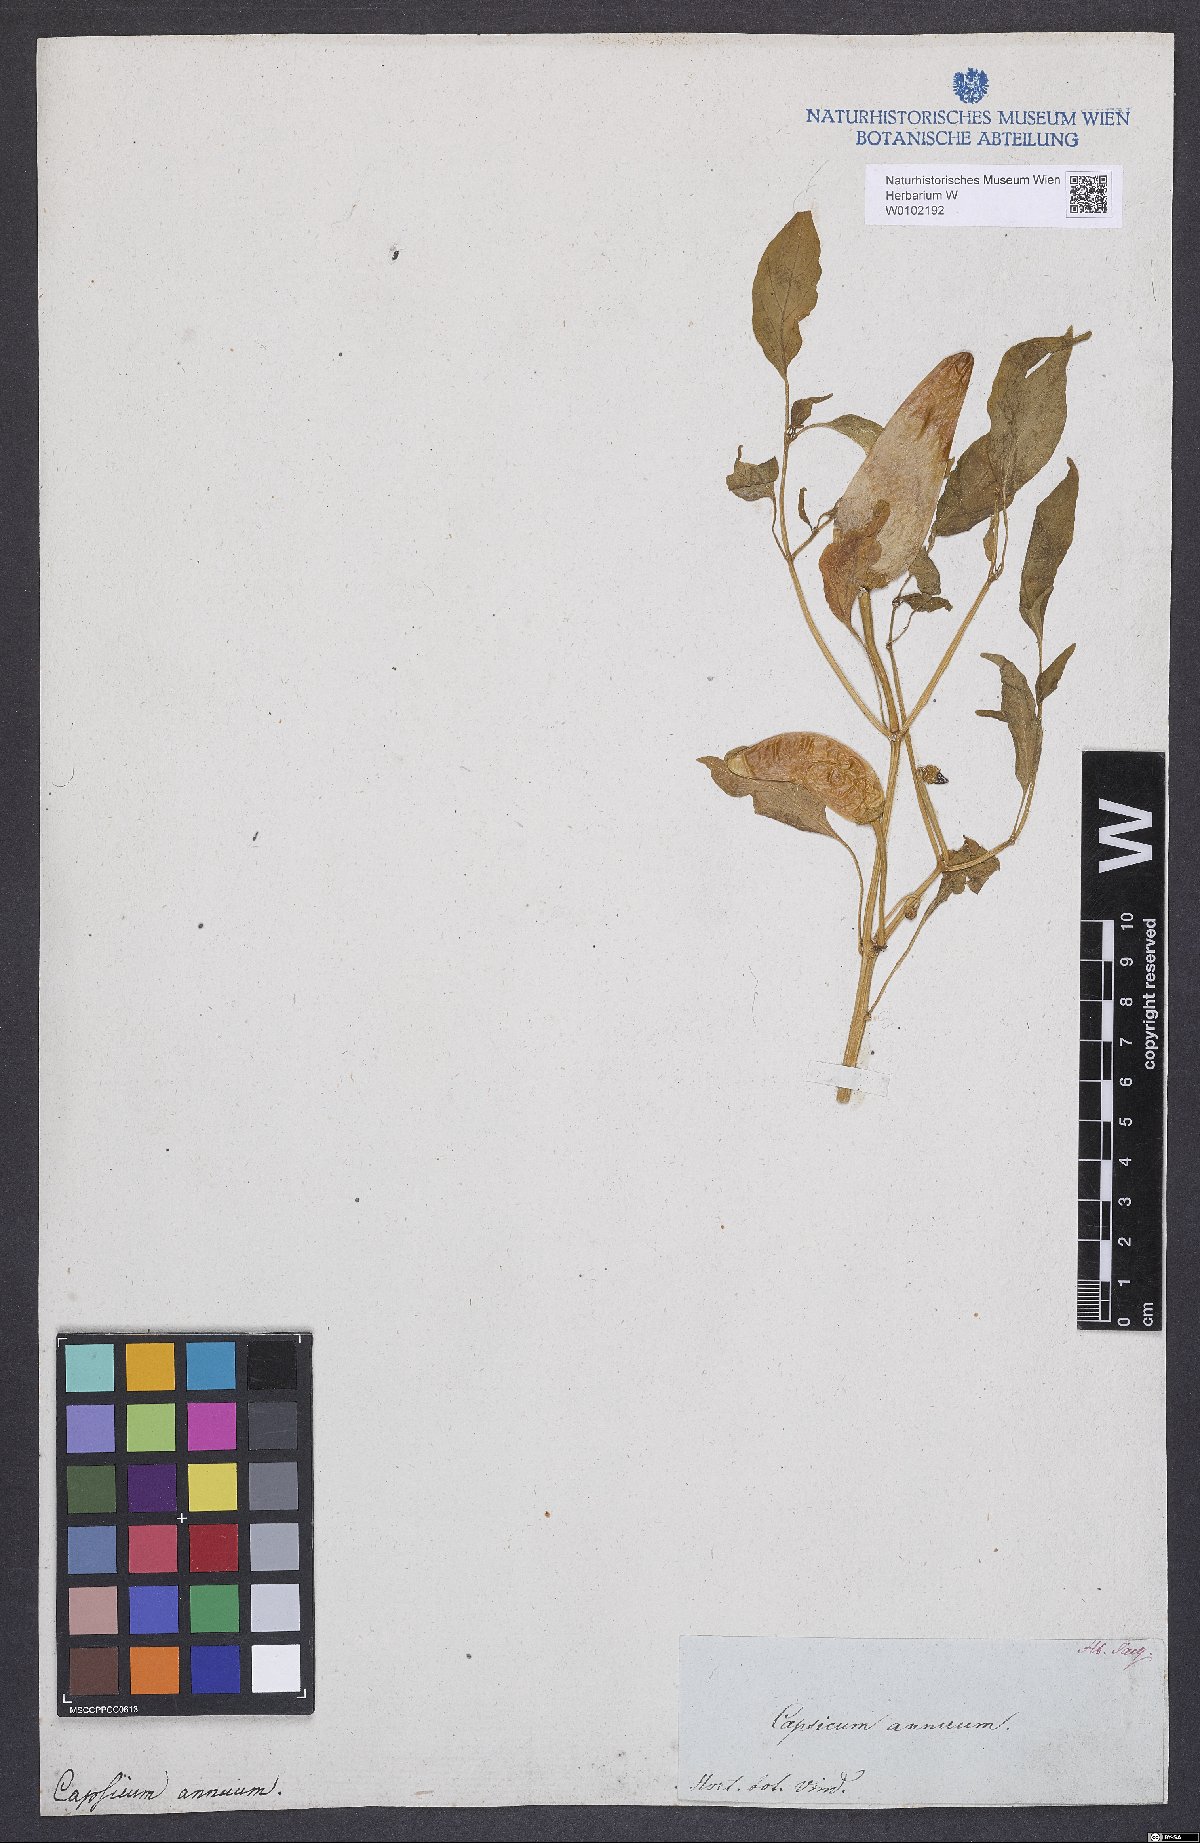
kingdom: Plantae
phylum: Tracheophyta
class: Magnoliopsida
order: Solanales
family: Solanaceae
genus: Capsicum
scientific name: Capsicum annuum
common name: Sweet pepper
